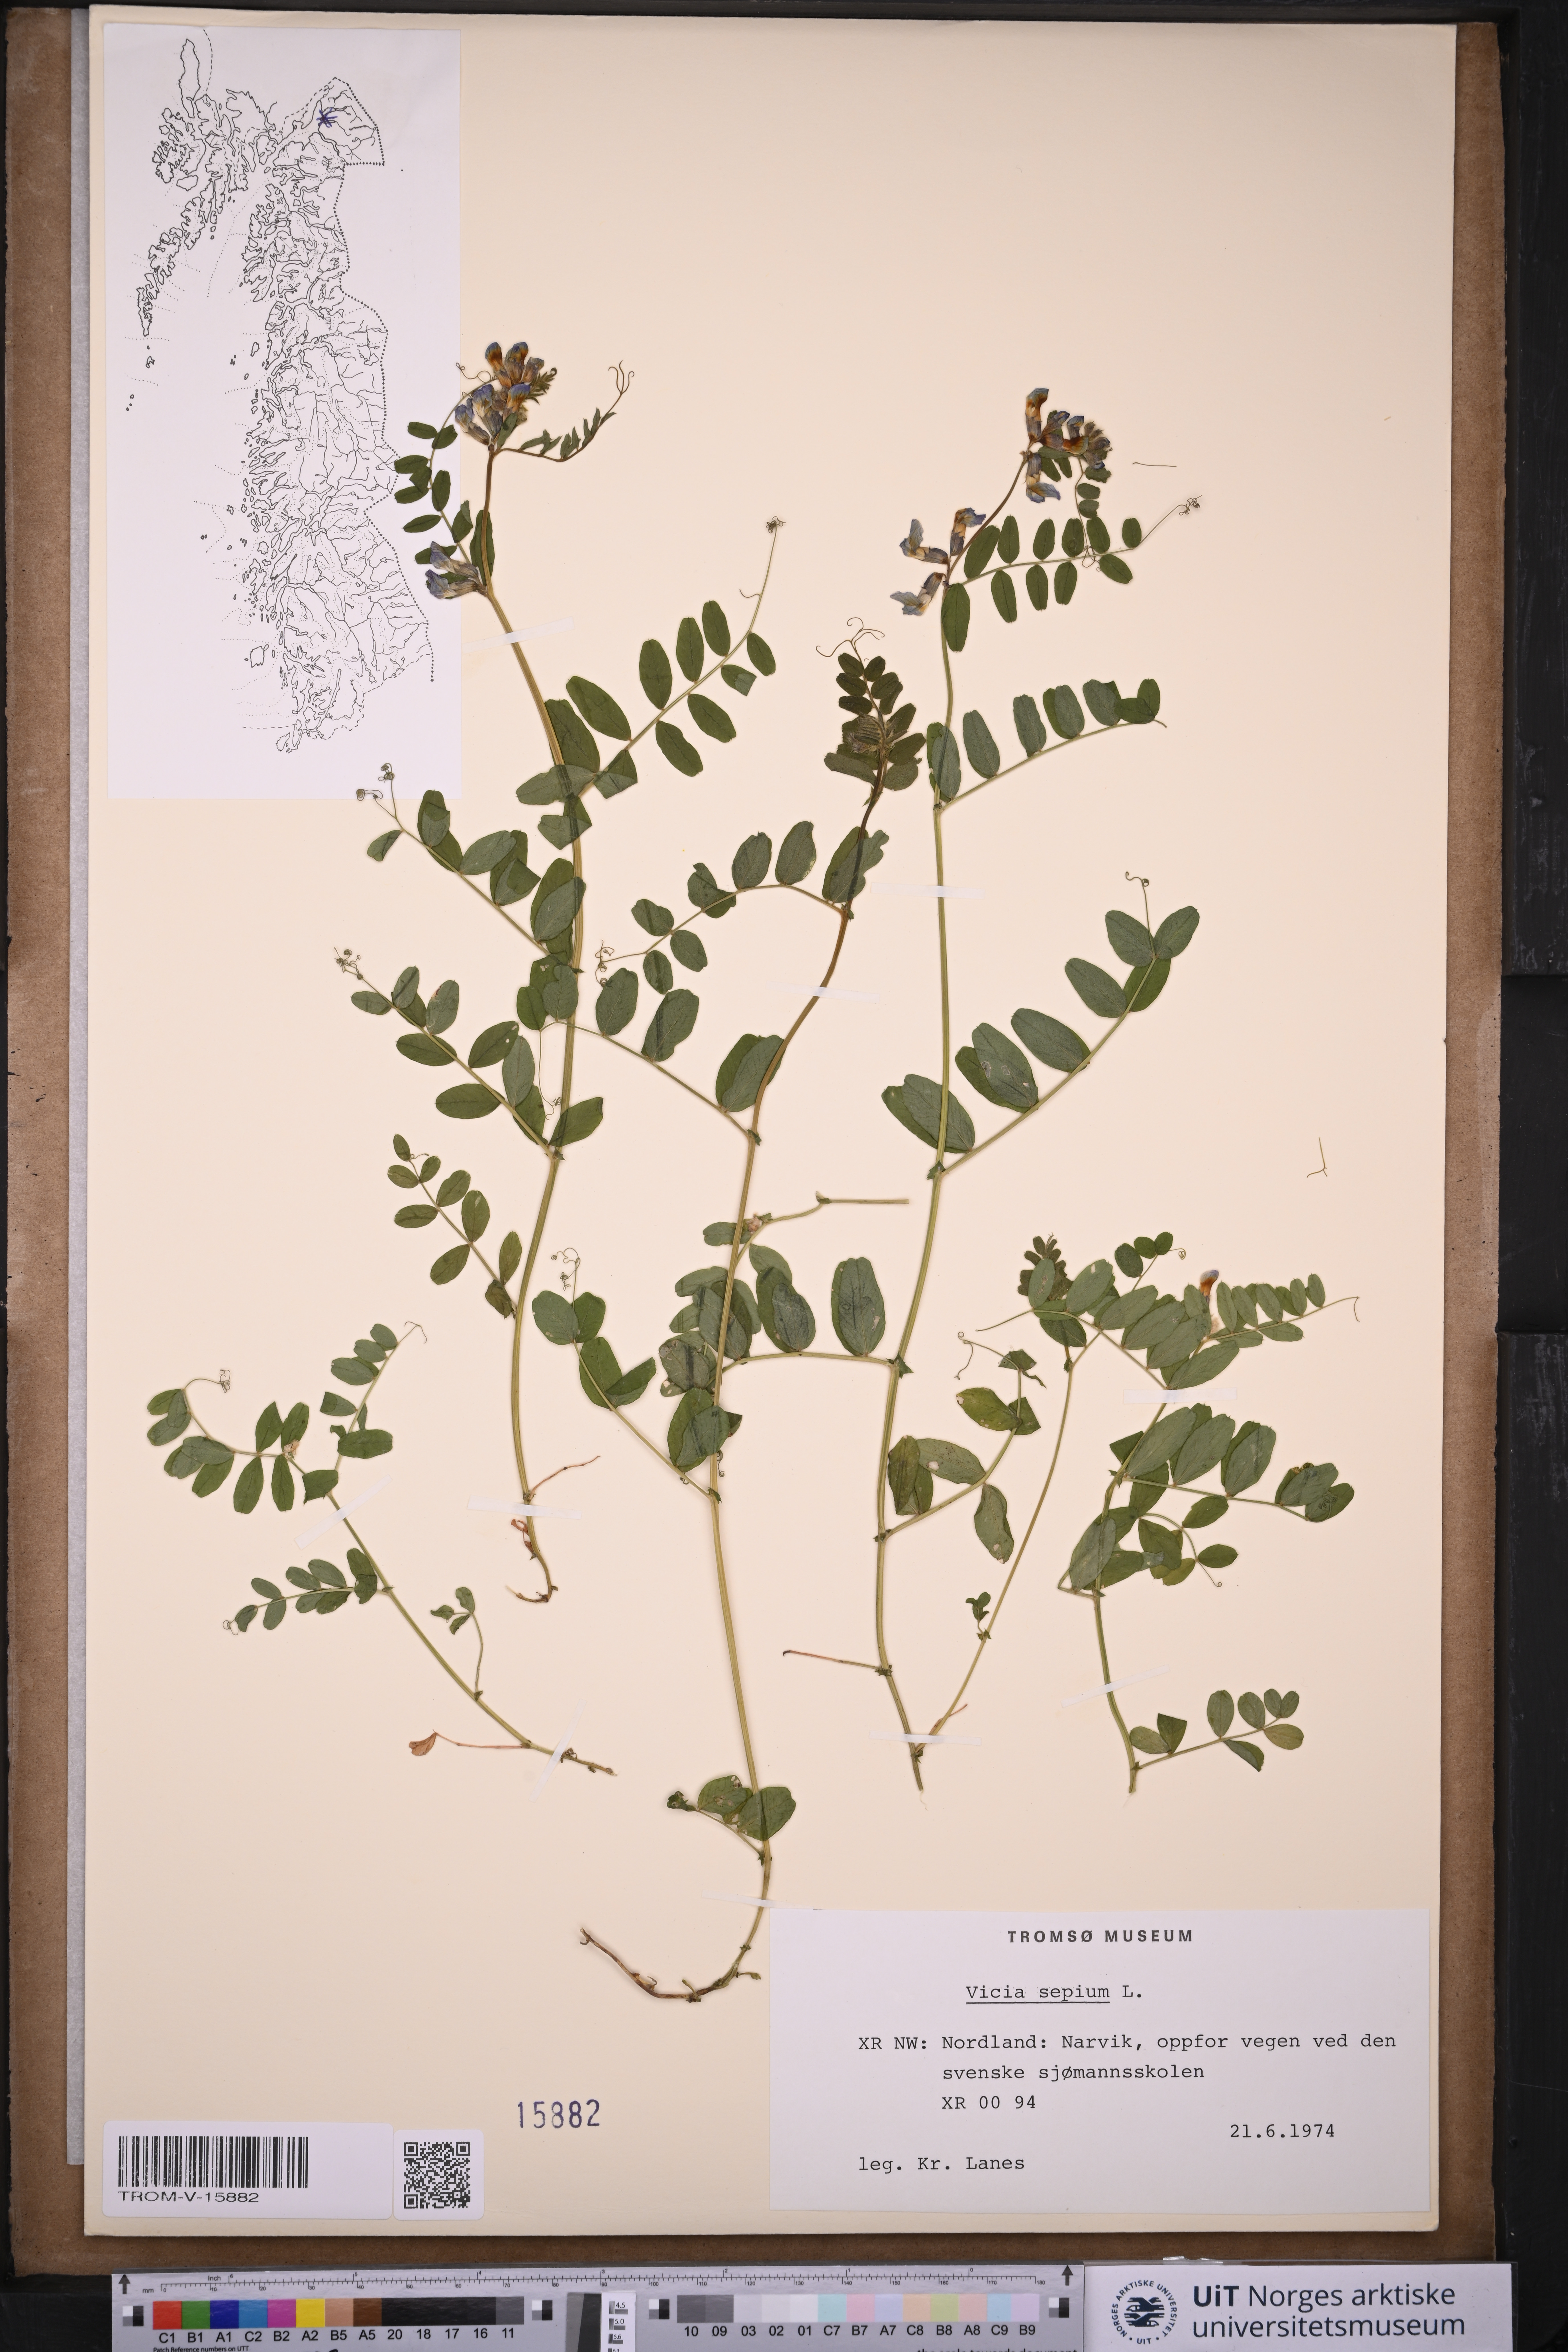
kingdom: Plantae
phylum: Tracheophyta
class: Magnoliopsida
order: Fabales
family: Fabaceae
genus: Vicia
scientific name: Vicia sepium
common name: Bush vetch
